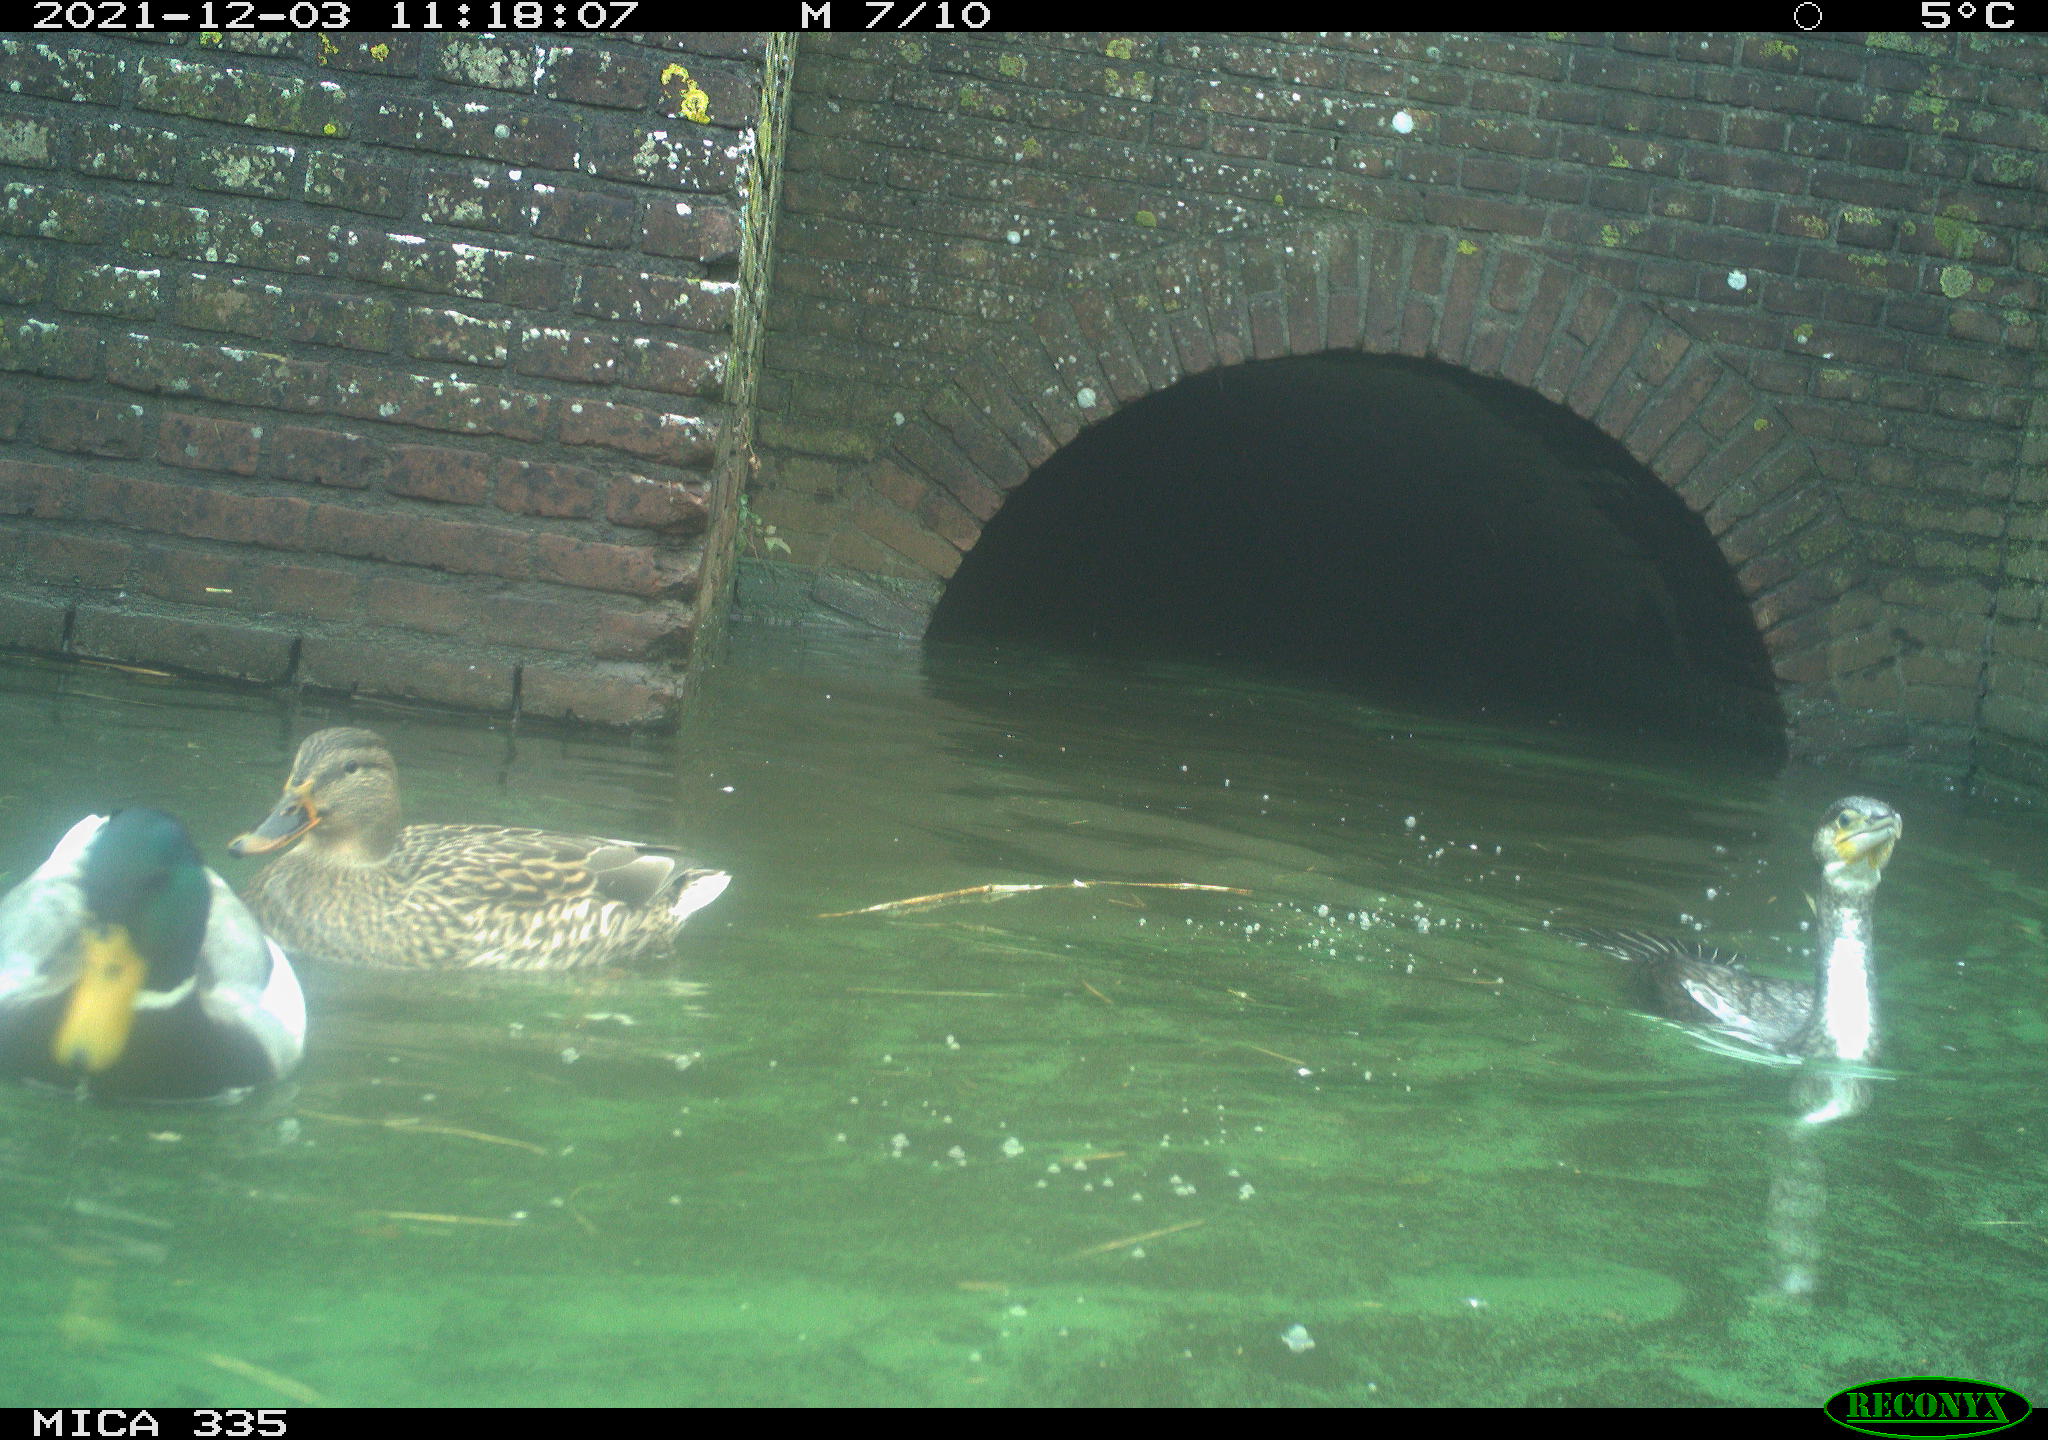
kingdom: Animalia
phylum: Chordata
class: Aves
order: Anseriformes
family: Anatidae
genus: Anas
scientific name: Anas platyrhynchos
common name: Mallard
